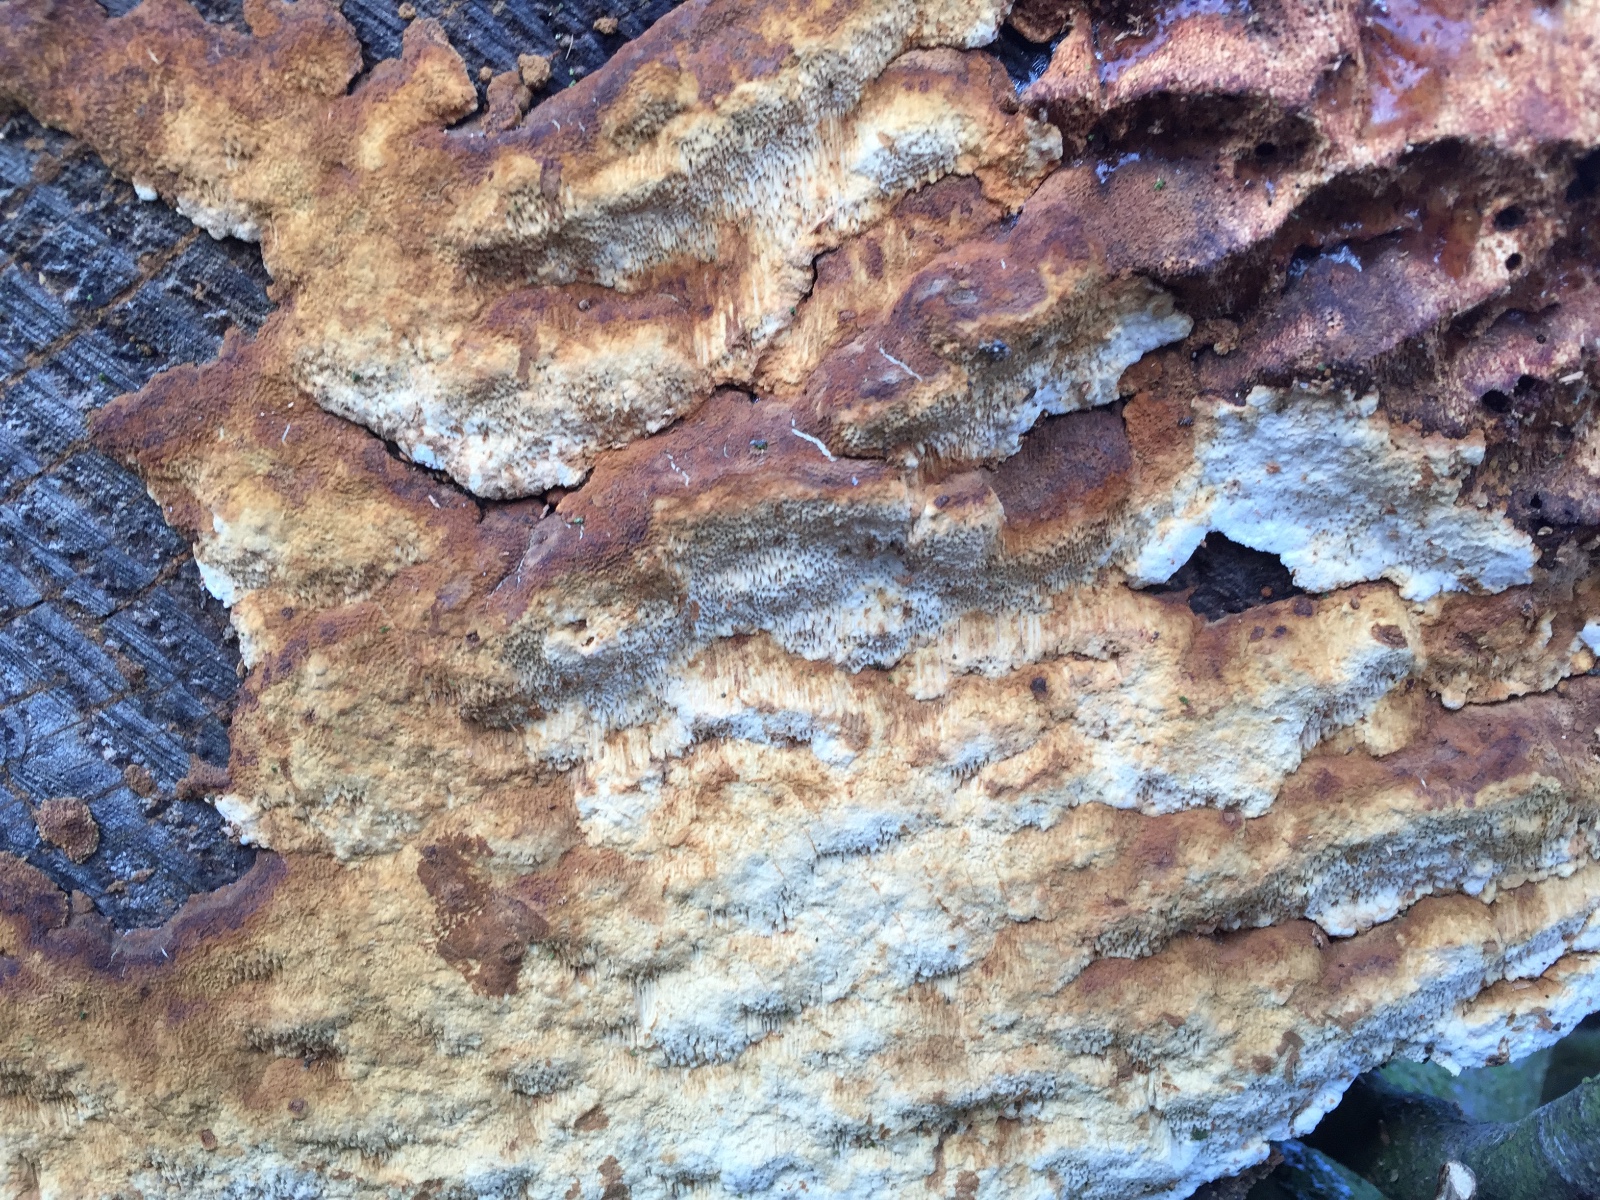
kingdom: Fungi
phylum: Basidiomycota
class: Agaricomycetes
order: Gloeophyllales
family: Gloeophyllaceae
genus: Gloeophyllum
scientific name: Gloeophyllum odoratum
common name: duftende korkhat
